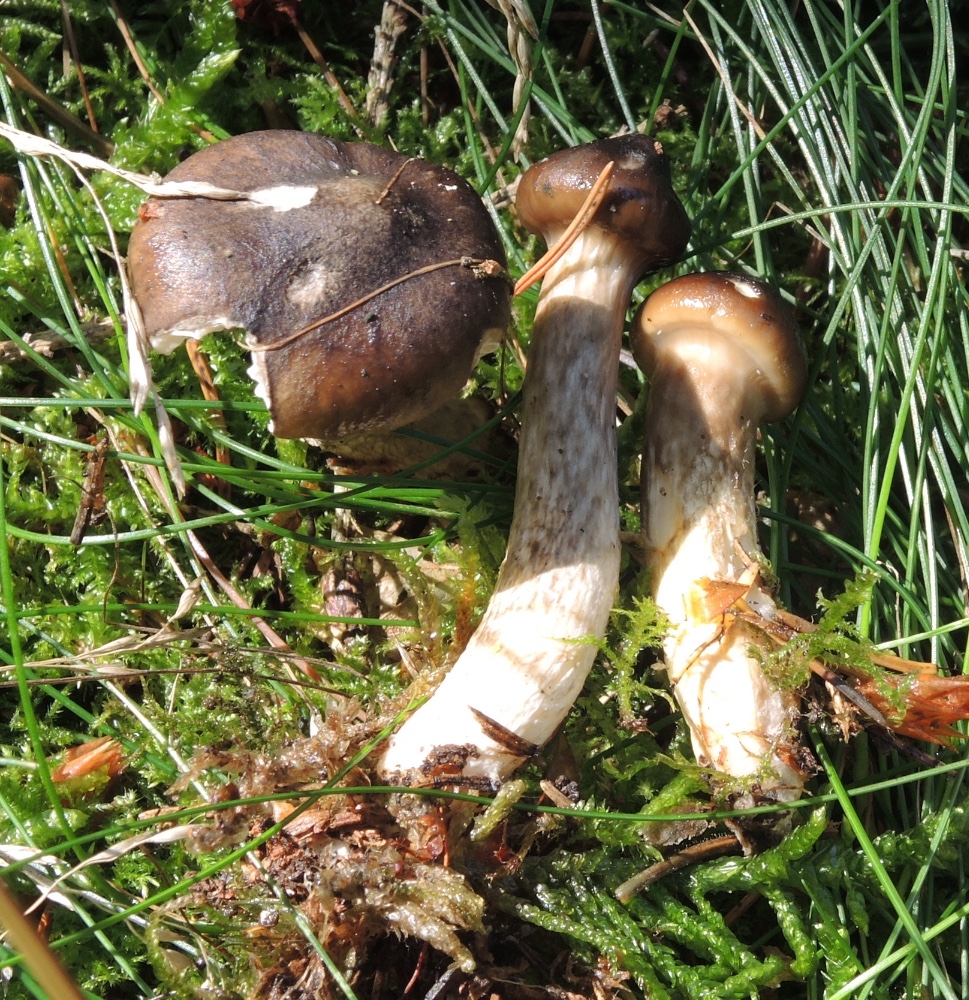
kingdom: Fungi
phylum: Basidiomycota
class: Agaricomycetes
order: Agaricales
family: Hygrophoraceae
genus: Hygrophorus
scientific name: Hygrophorus olivaceoalbus
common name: hvidbrun sneglehat
